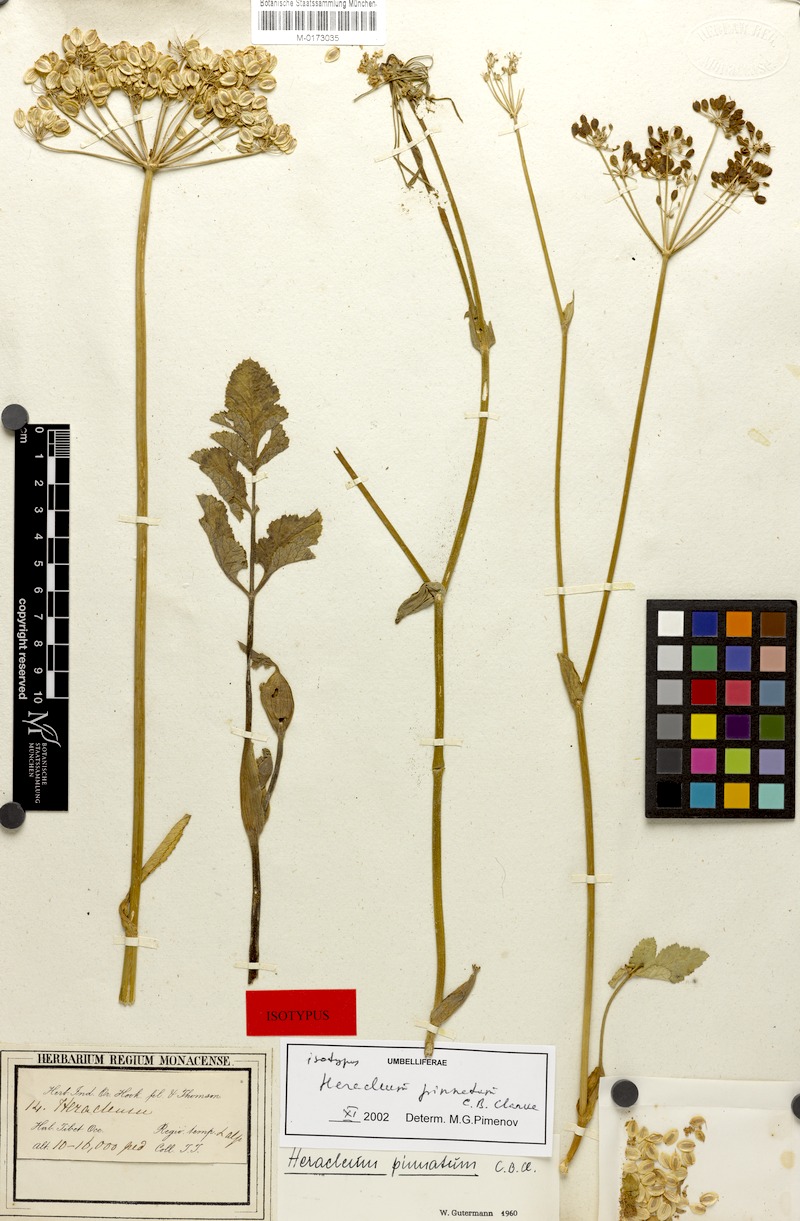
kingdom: Plantae
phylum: Tracheophyta
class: Magnoliopsida
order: Apiales
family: Apiaceae
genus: Tetrataenium
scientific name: Tetrataenium pinnatum
